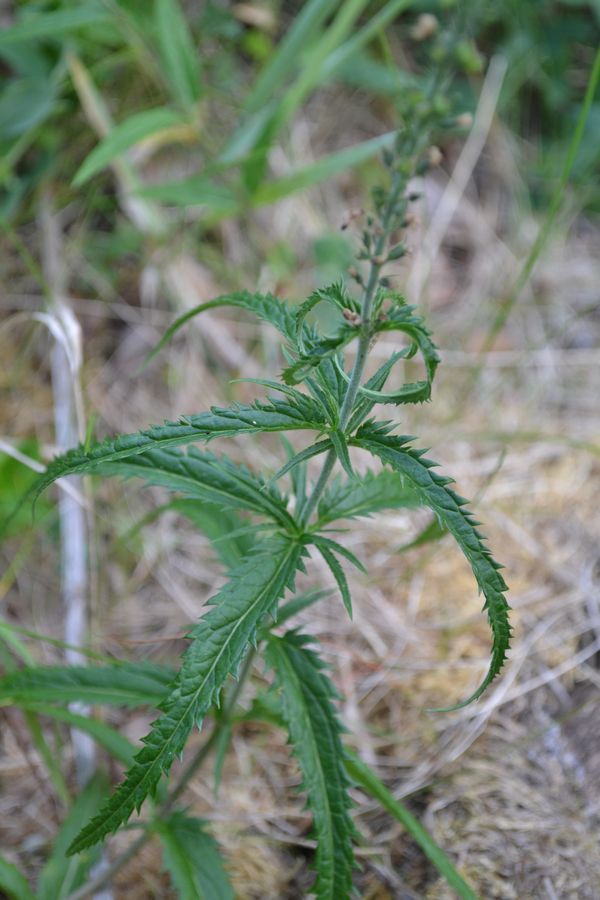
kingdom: Plantae
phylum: Tracheophyta
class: Magnoliopsida
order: Lamiales
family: Plantaginaceae
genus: Veronica
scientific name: Veronica longifolia
